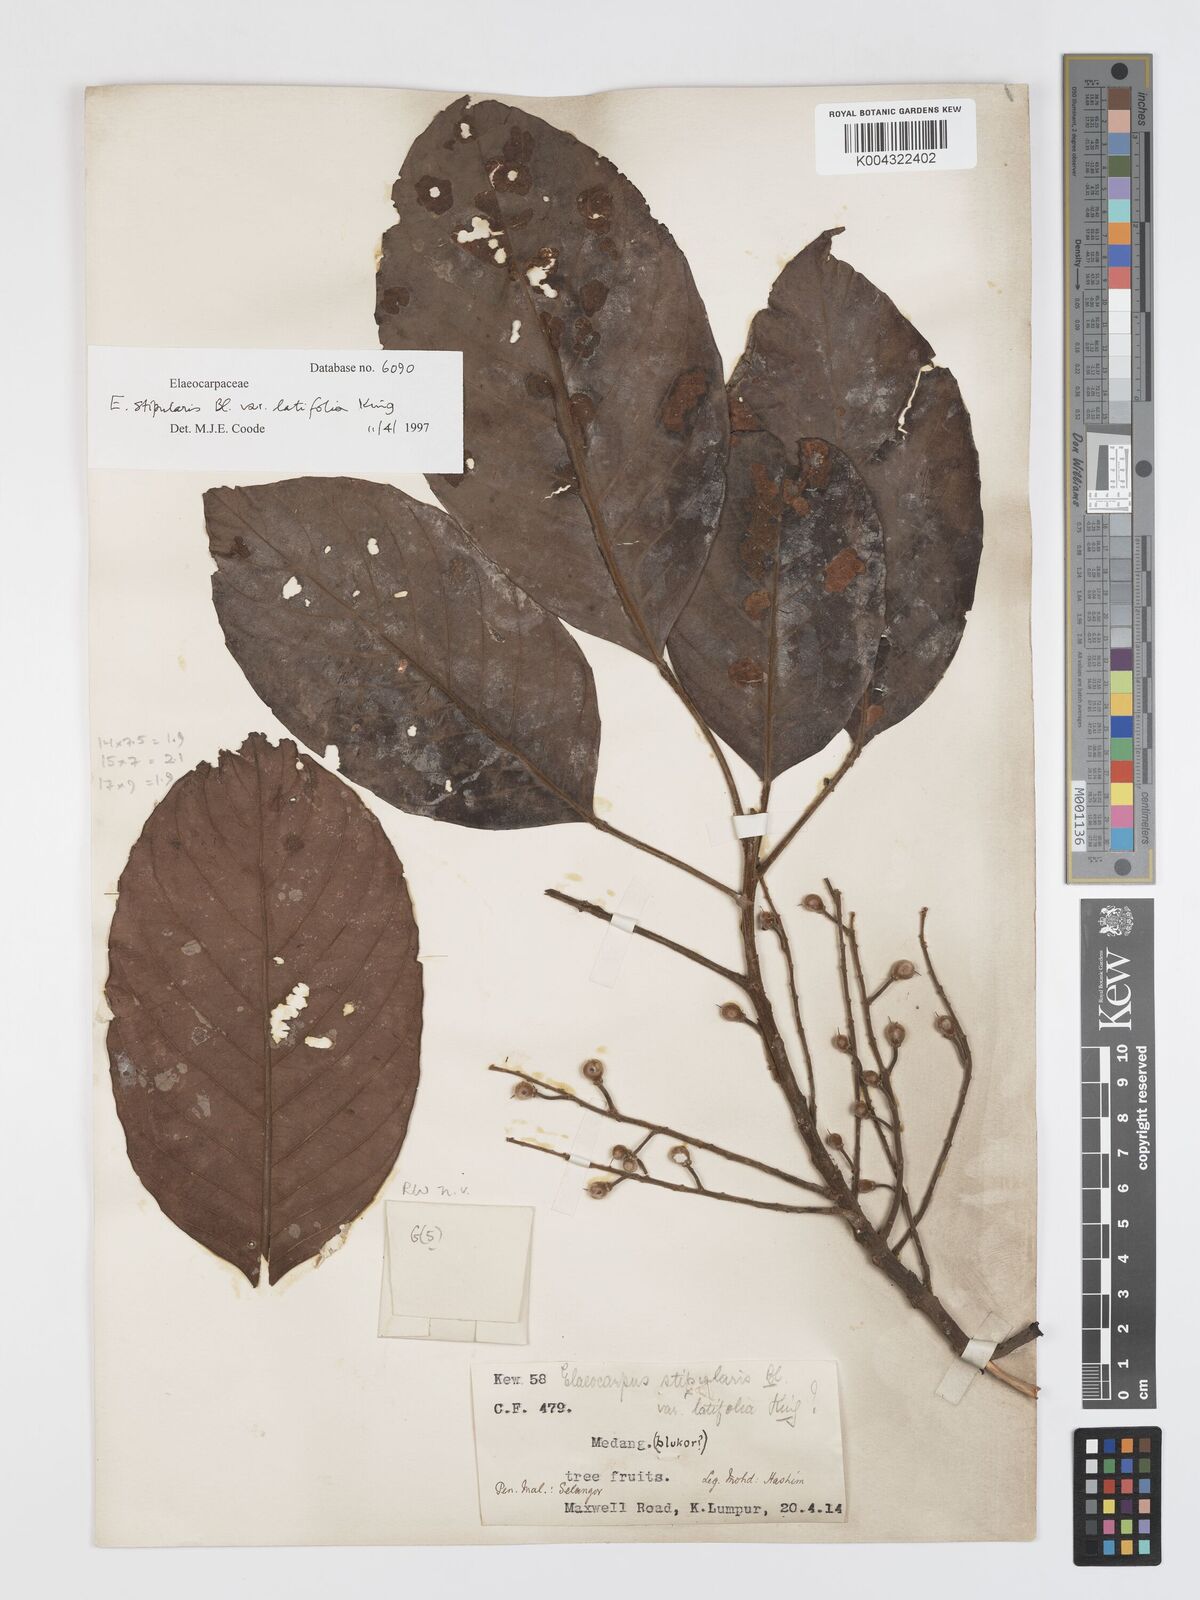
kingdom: Plantae
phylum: Tracheophyta
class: Magnoliopsida
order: Oxalidales
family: Elaeocarpaceae
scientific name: Elaeocarpaceae
